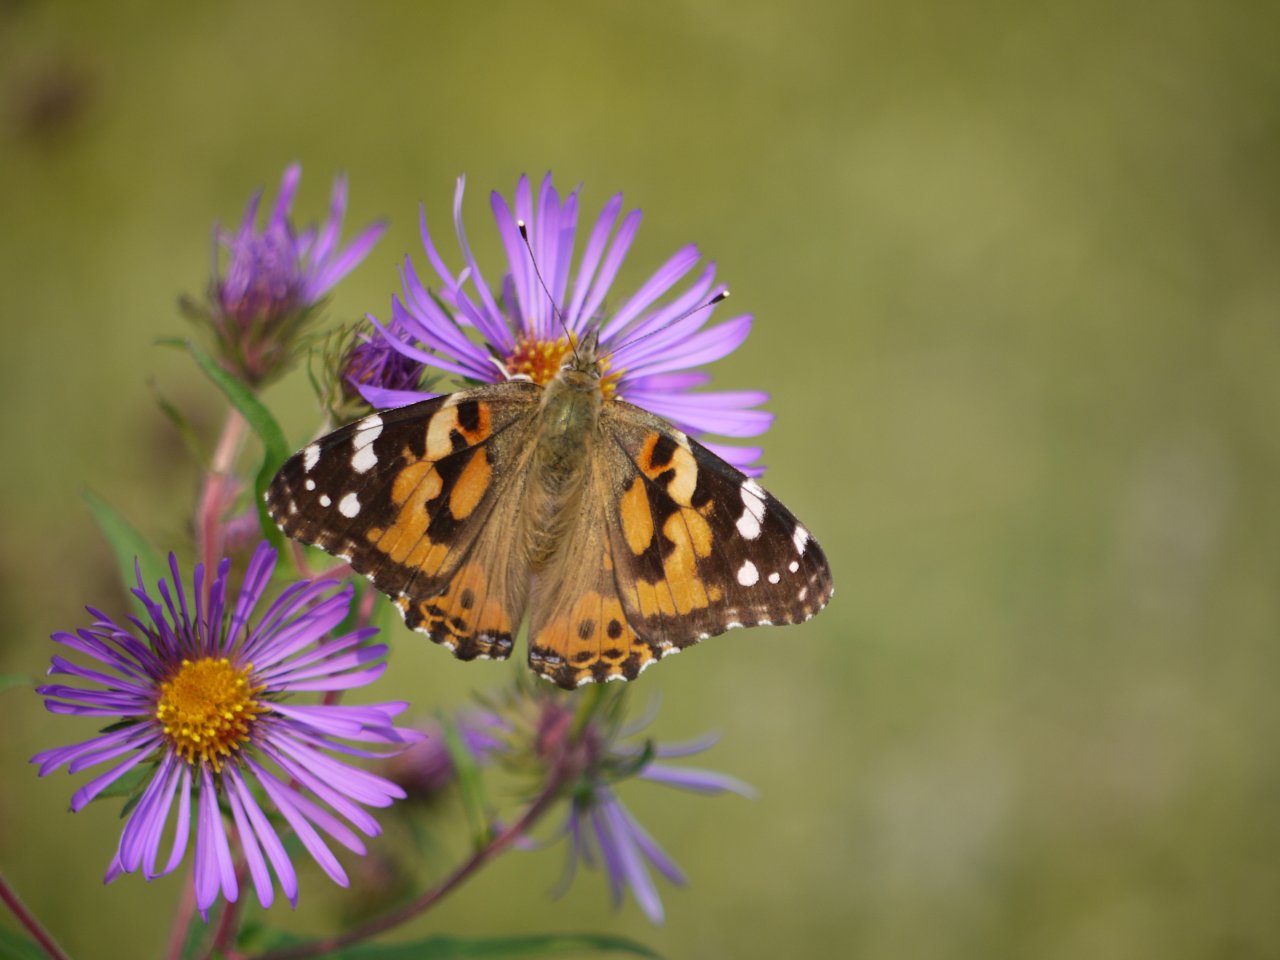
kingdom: Animalia
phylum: Arthropoda
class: Insecta
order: Lepidoptera
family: Nymphalidae
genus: Vanessa
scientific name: Vanessa cardui
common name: Painted Lady
